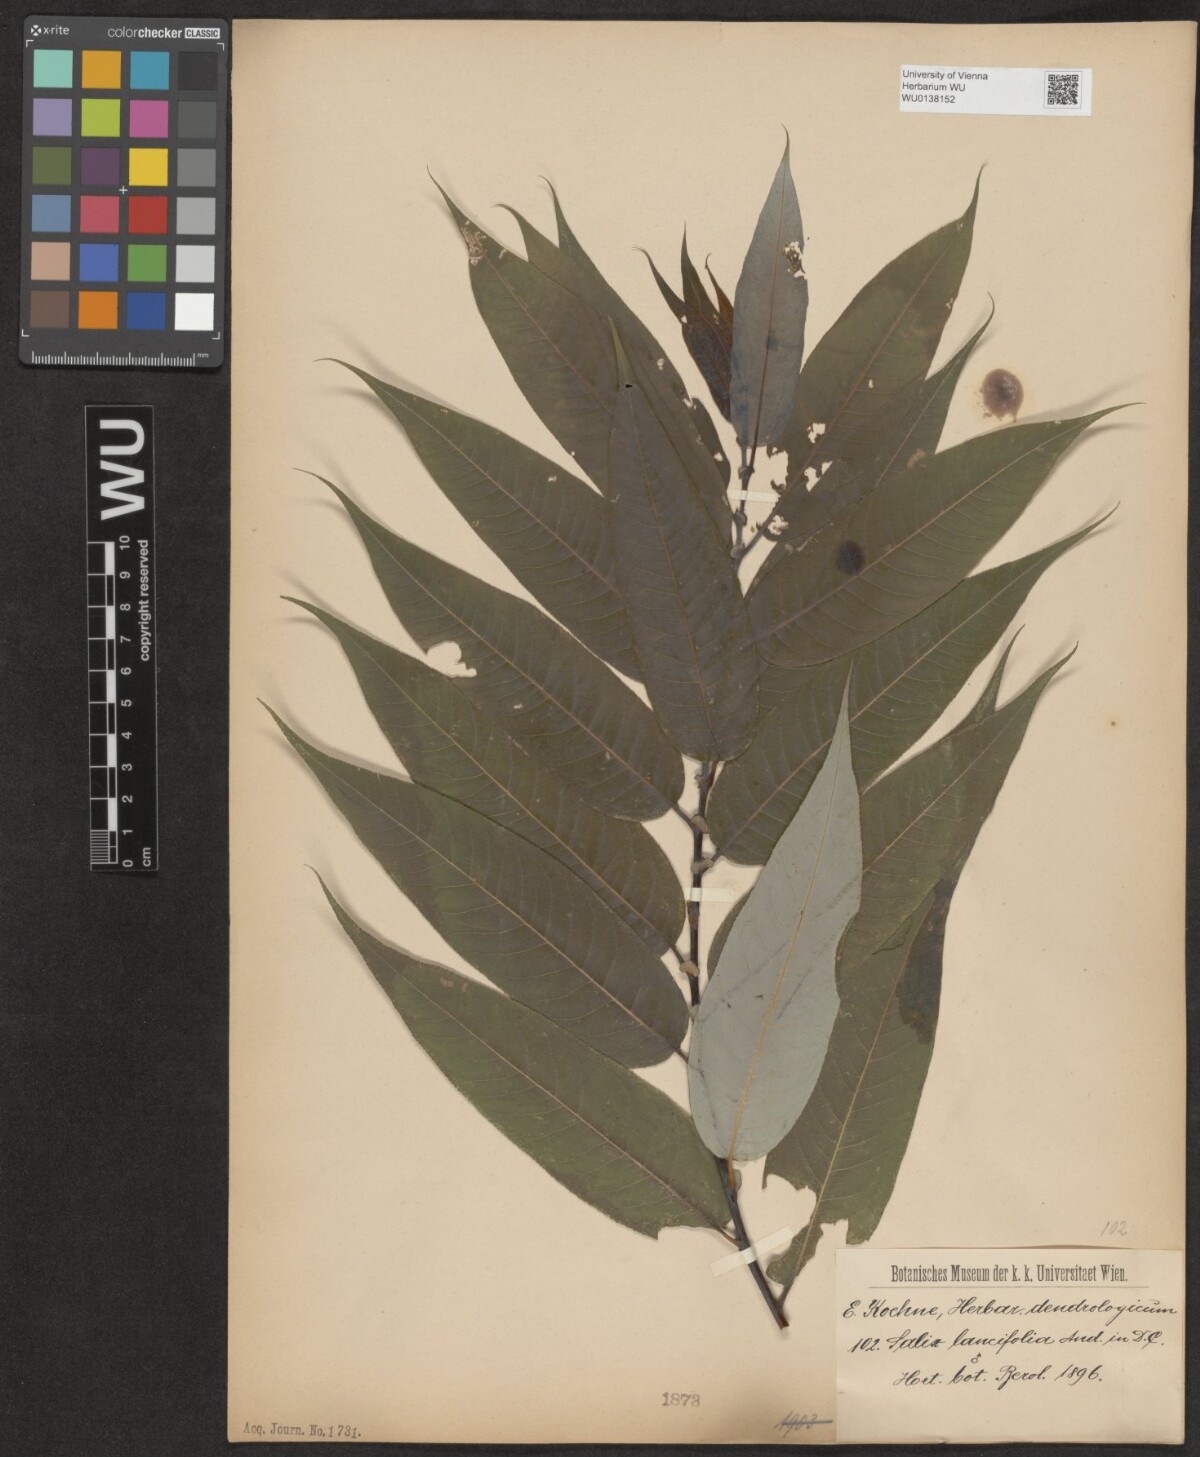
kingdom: Plantae
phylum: Tracheophyta
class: Magnoliopsida
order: Malpighiales
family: Salicaceae
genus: Salix
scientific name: Salix lucida
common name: Shining willow
